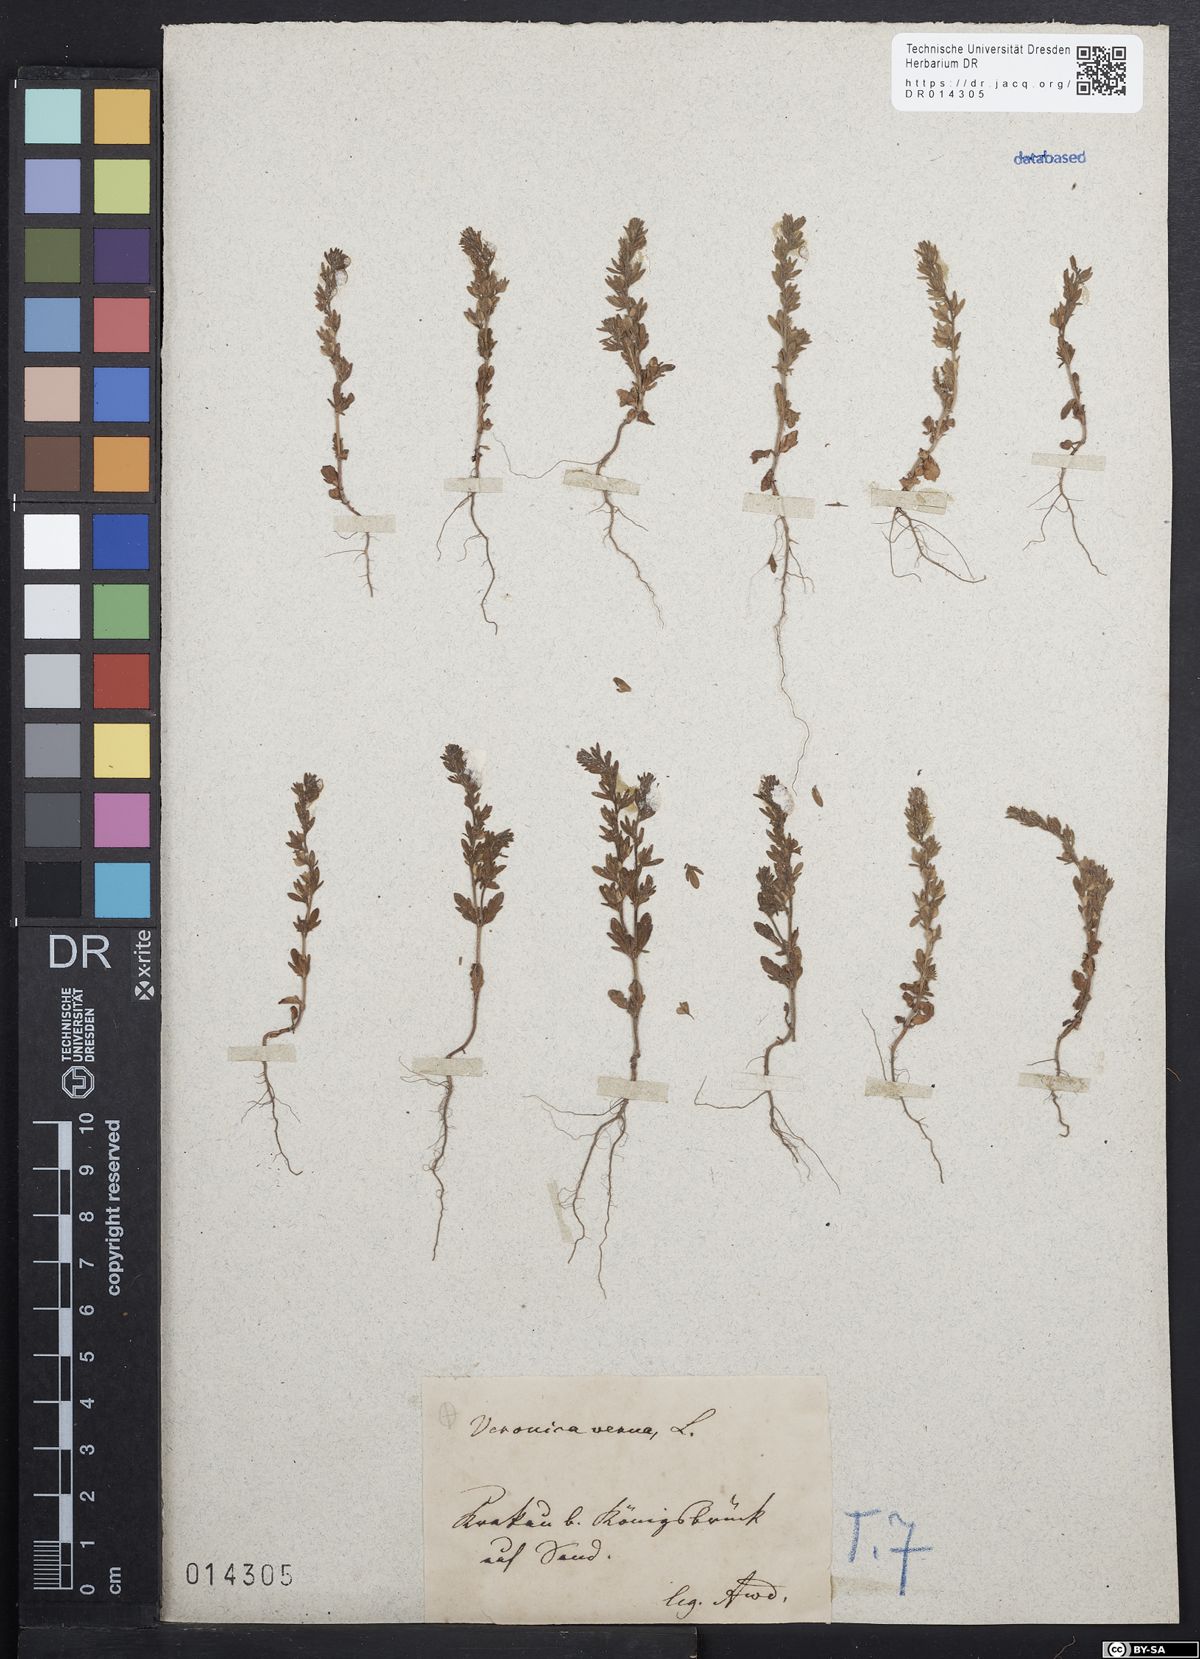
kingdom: Plantae
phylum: Tracheophyta
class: Magnoliopsida
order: Lamiales
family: Plantaginaceae
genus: Veronica
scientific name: Veronica verna
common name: Spring speedwell
